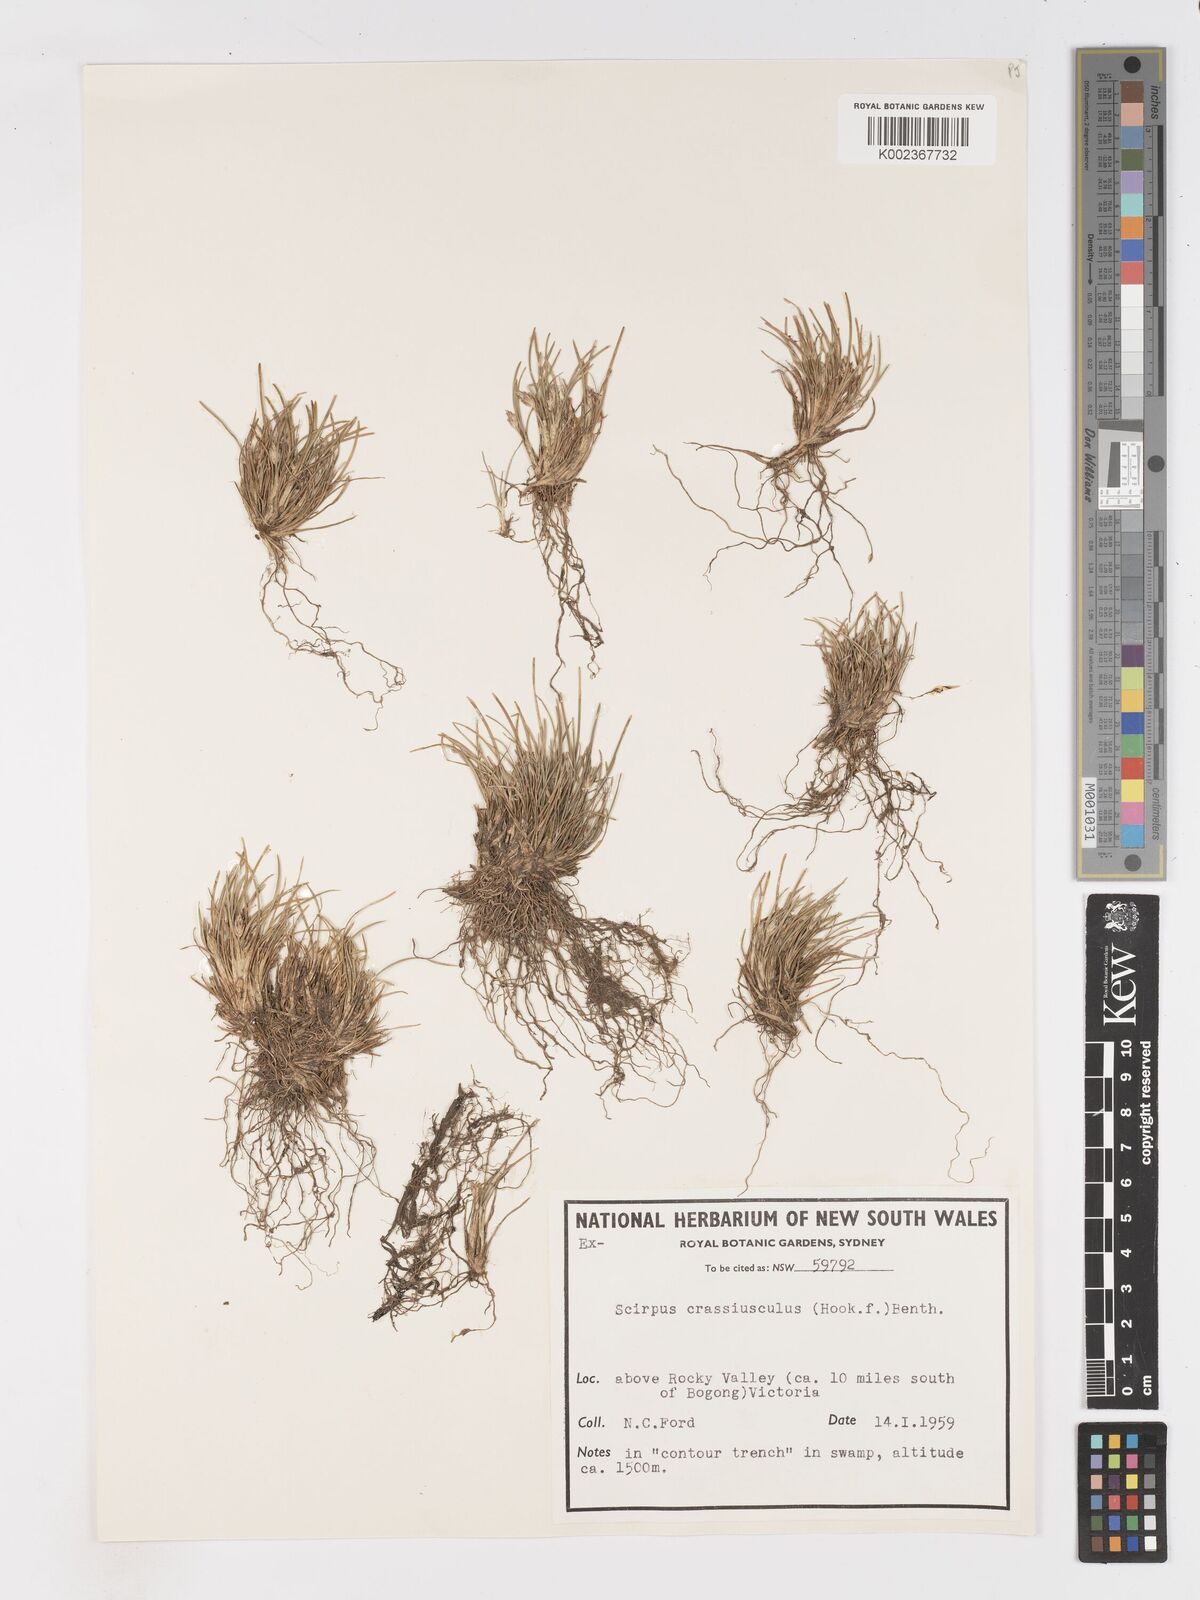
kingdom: Plantae
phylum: Tracheophyta
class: Liliopsida
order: Poales
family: Cyperaceae
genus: Isolepis
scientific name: Isolepis crassiuscula
